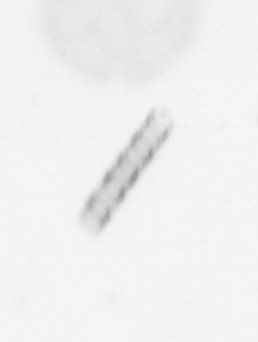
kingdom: Chromista
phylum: Ochrophyta
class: Bacillariophyceae
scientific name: Bacillariophyceae
